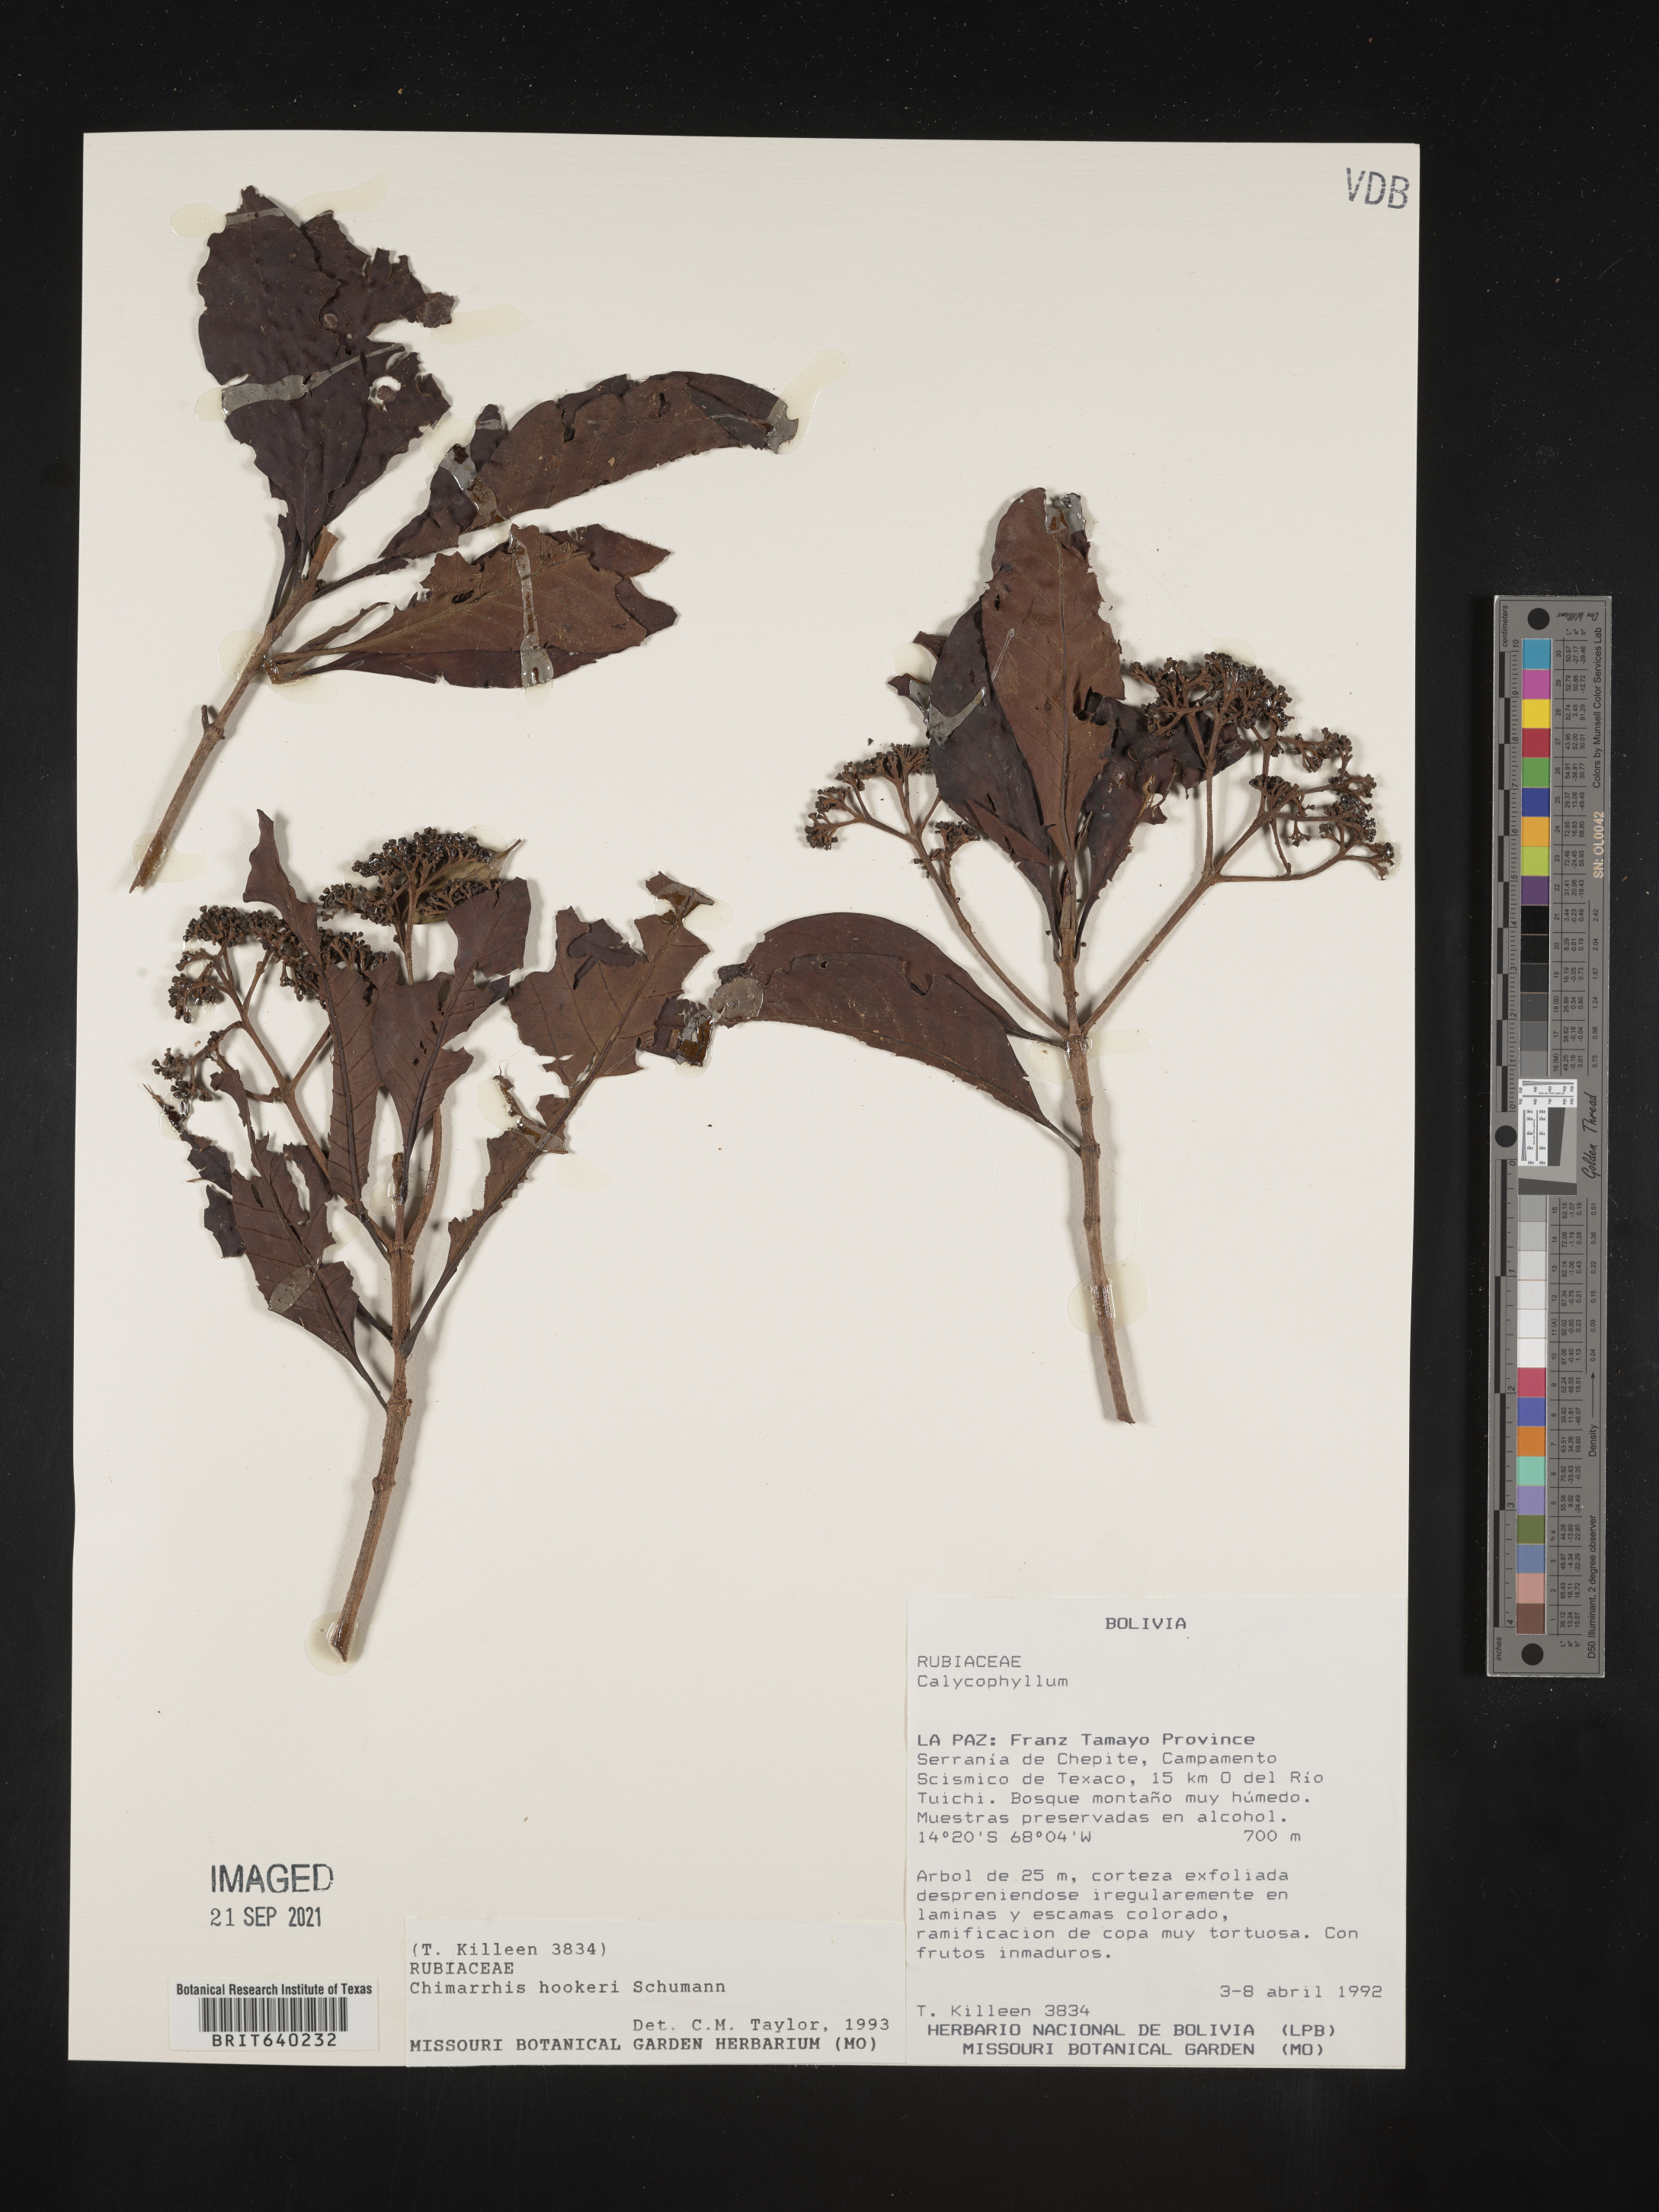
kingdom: Plantae
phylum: Tracheophyta
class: Magnoliopsida
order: Gentianales
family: Rubiaceae
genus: Chimarrhis
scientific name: Chimarrhis
